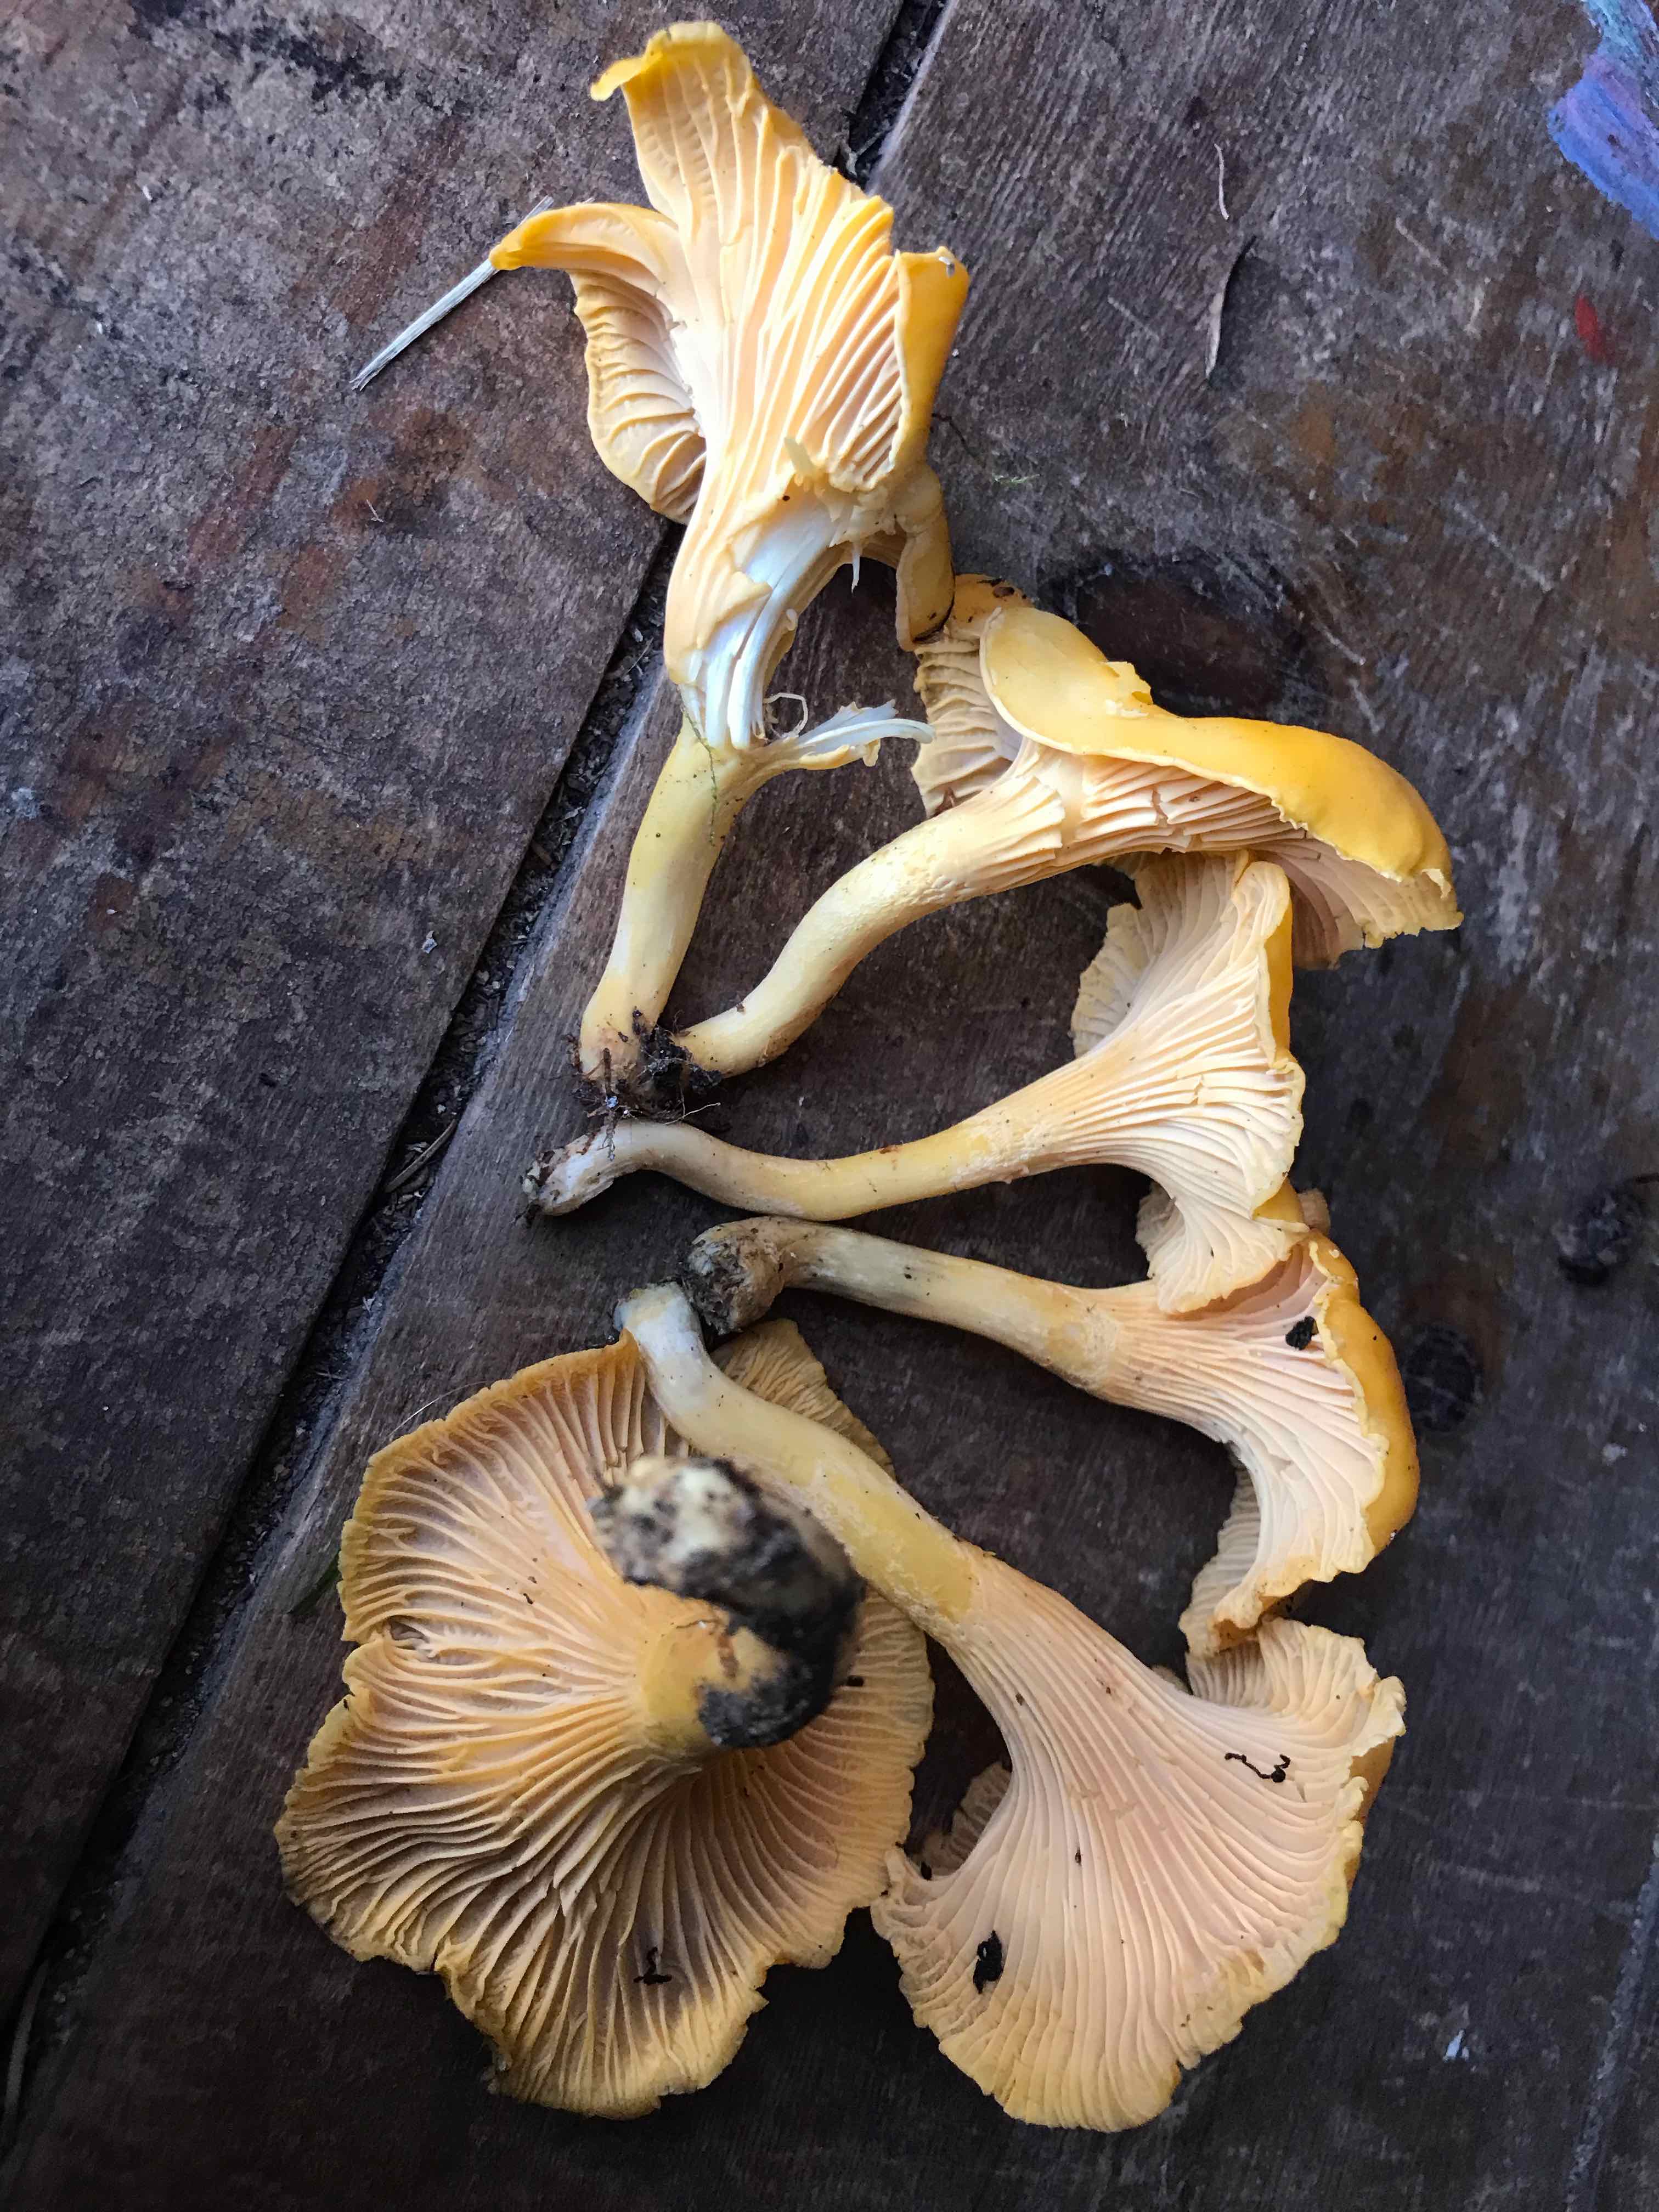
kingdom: Fungi
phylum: Basidiomycota
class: Agaricomycetes
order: Cantharellales
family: Hydnaceae
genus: Cantharellus
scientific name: Cantharellus cibarius
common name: almindelig kantarel
